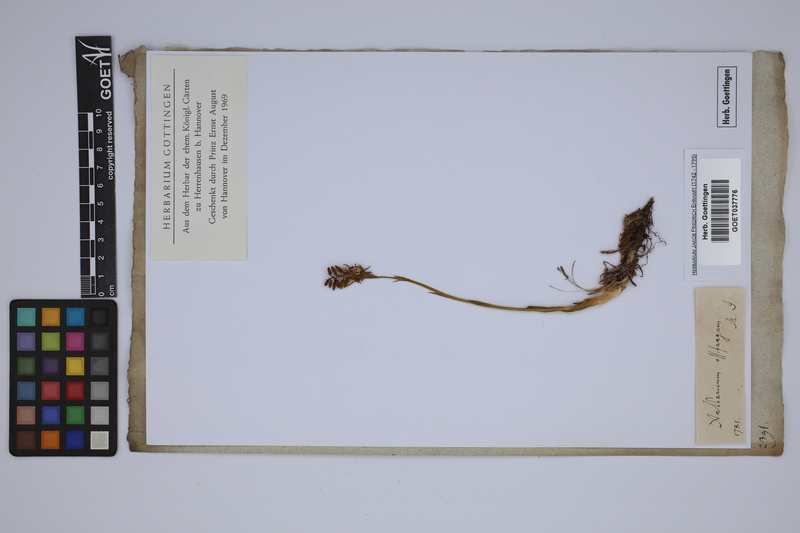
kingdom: Plantae
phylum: Tracheophyta
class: Liliopsida
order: Dioscoreales
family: Nartheciaceae
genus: Narthecium
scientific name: Narthecium ossifragum
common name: Bog asphodel
